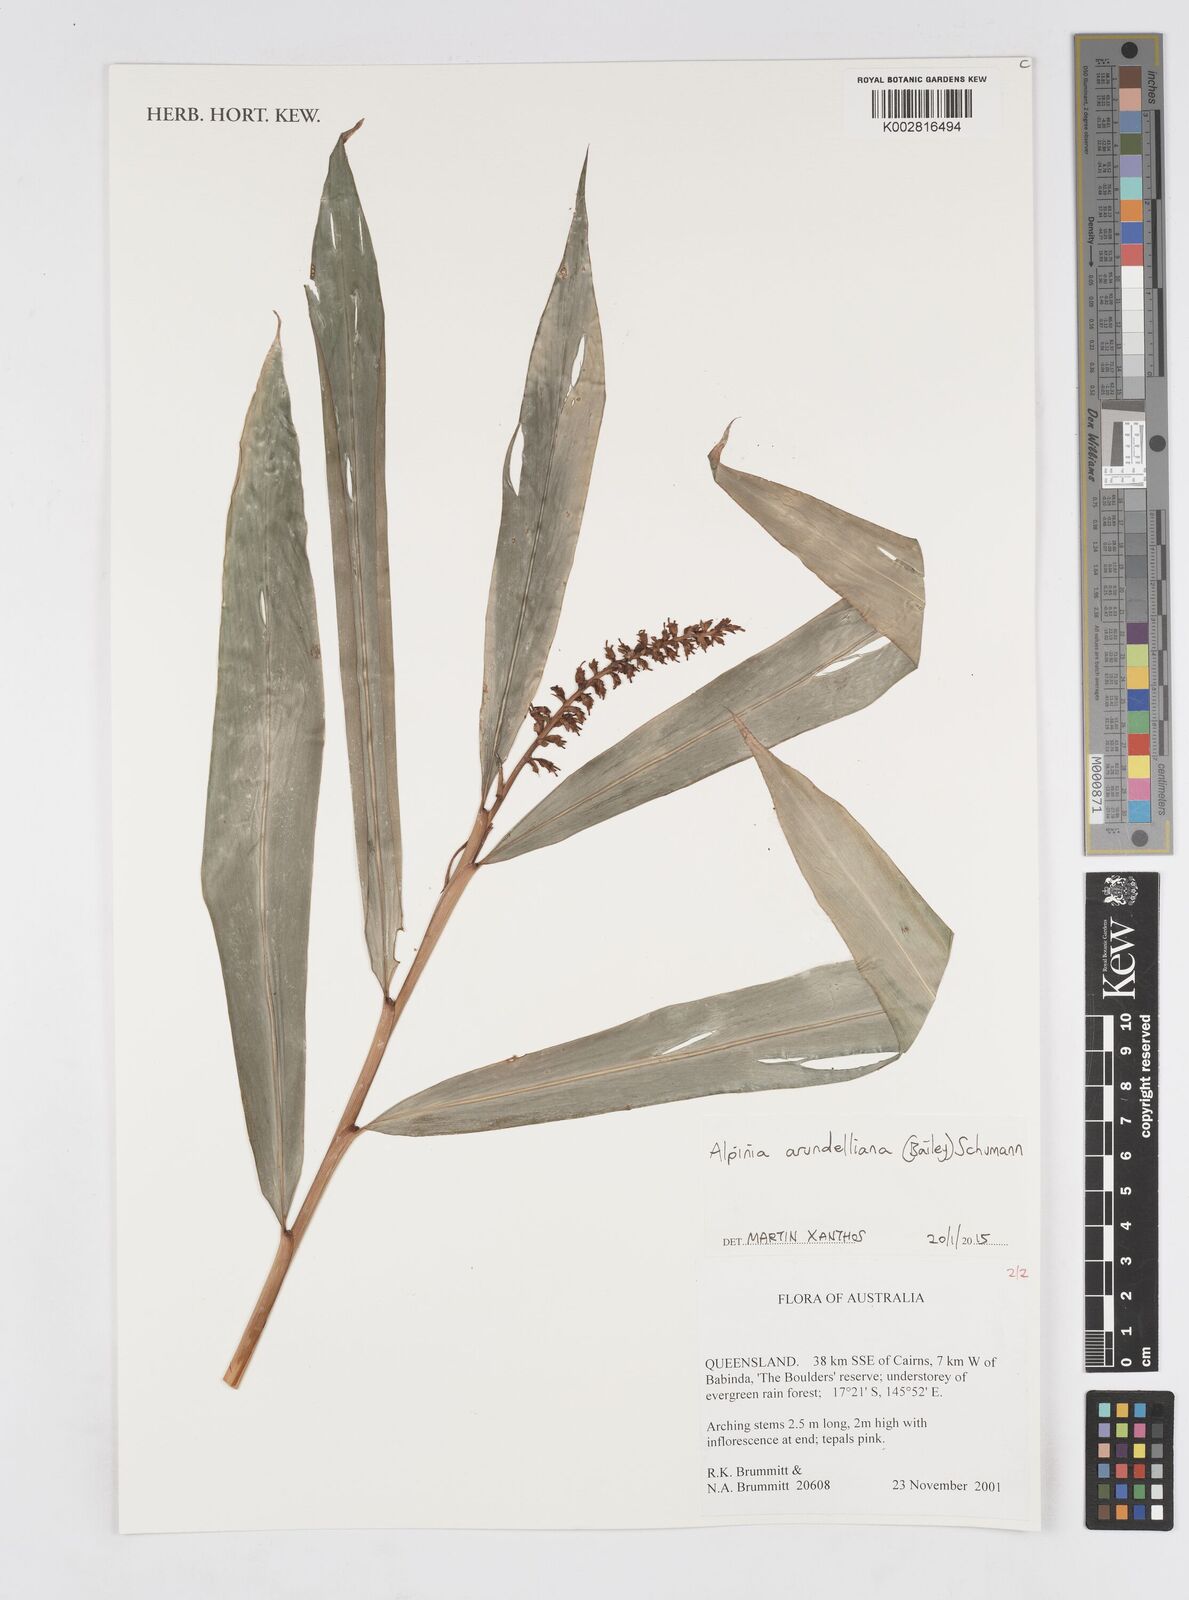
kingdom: Plantae
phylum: Tracheophyta
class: Liliopsida
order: Zingiberales
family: Zingiberaceae
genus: Alpinia
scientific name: Alpinia arundelliana
